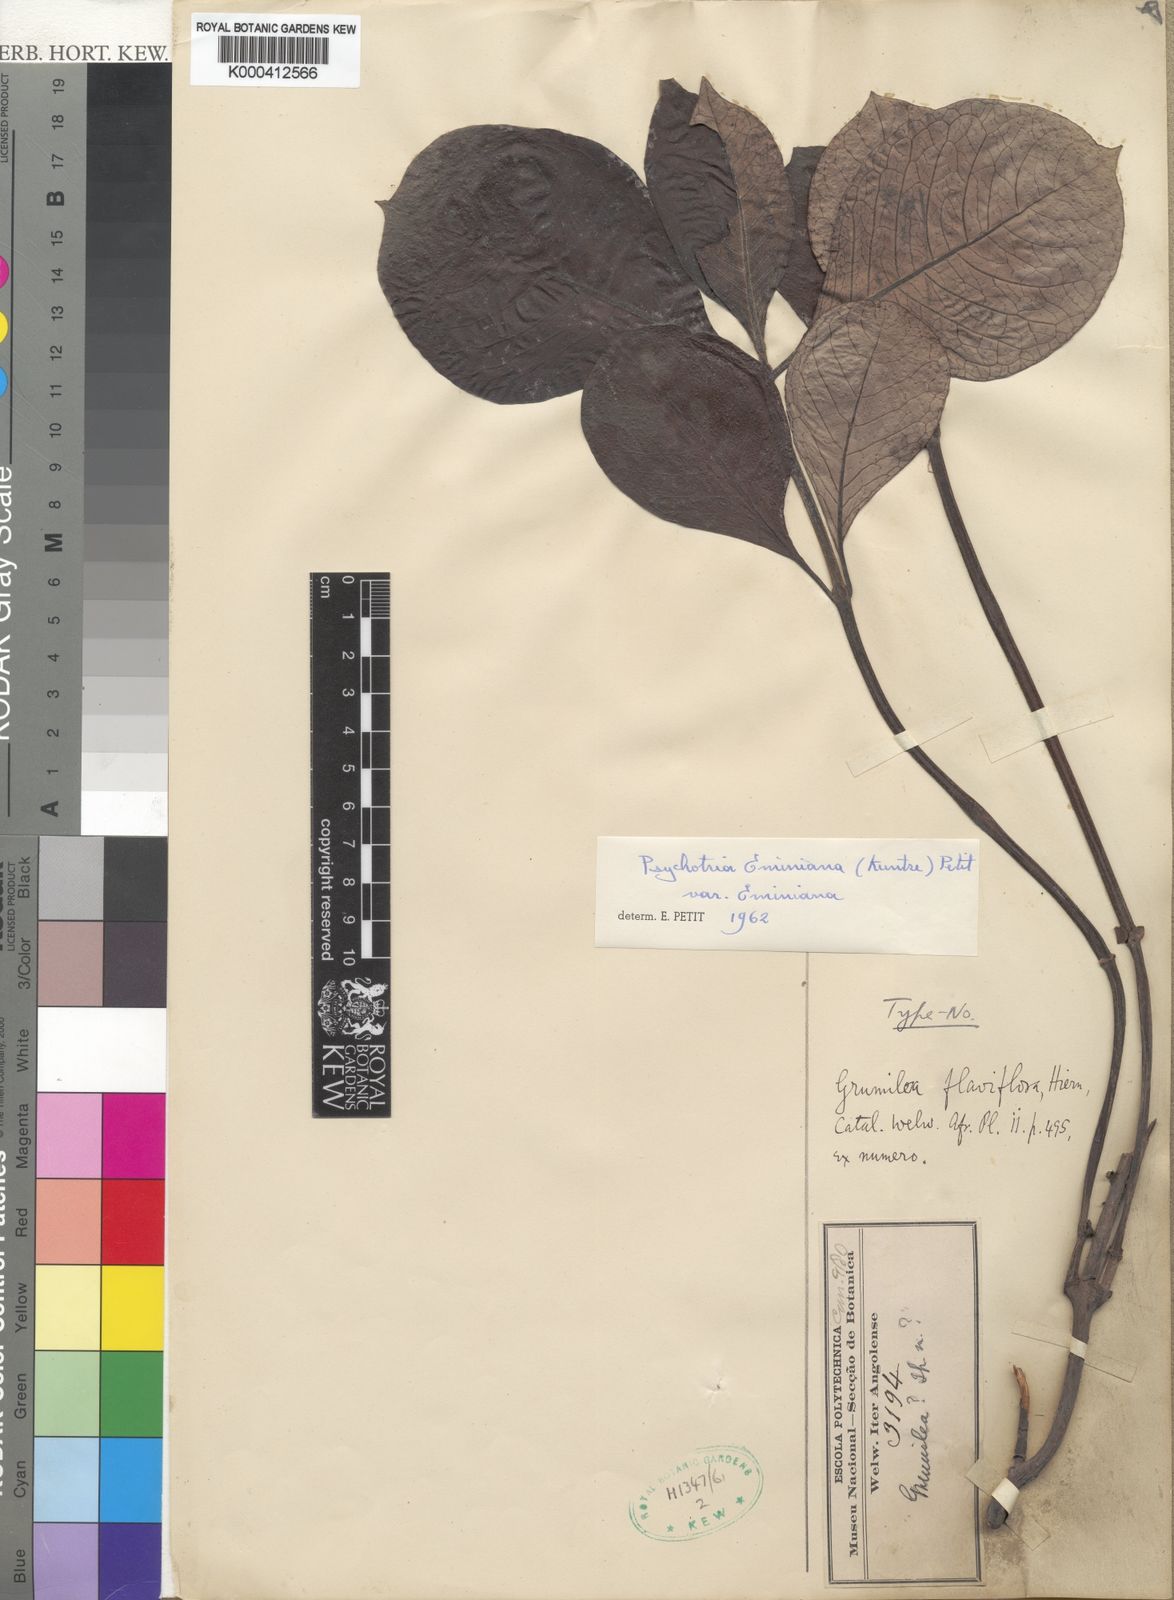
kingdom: Plantae
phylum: Tracheophyta
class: Magnoliopsida
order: Gentianales
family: Rubiaceae
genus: Psychotria
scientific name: Psychotria eminiana
